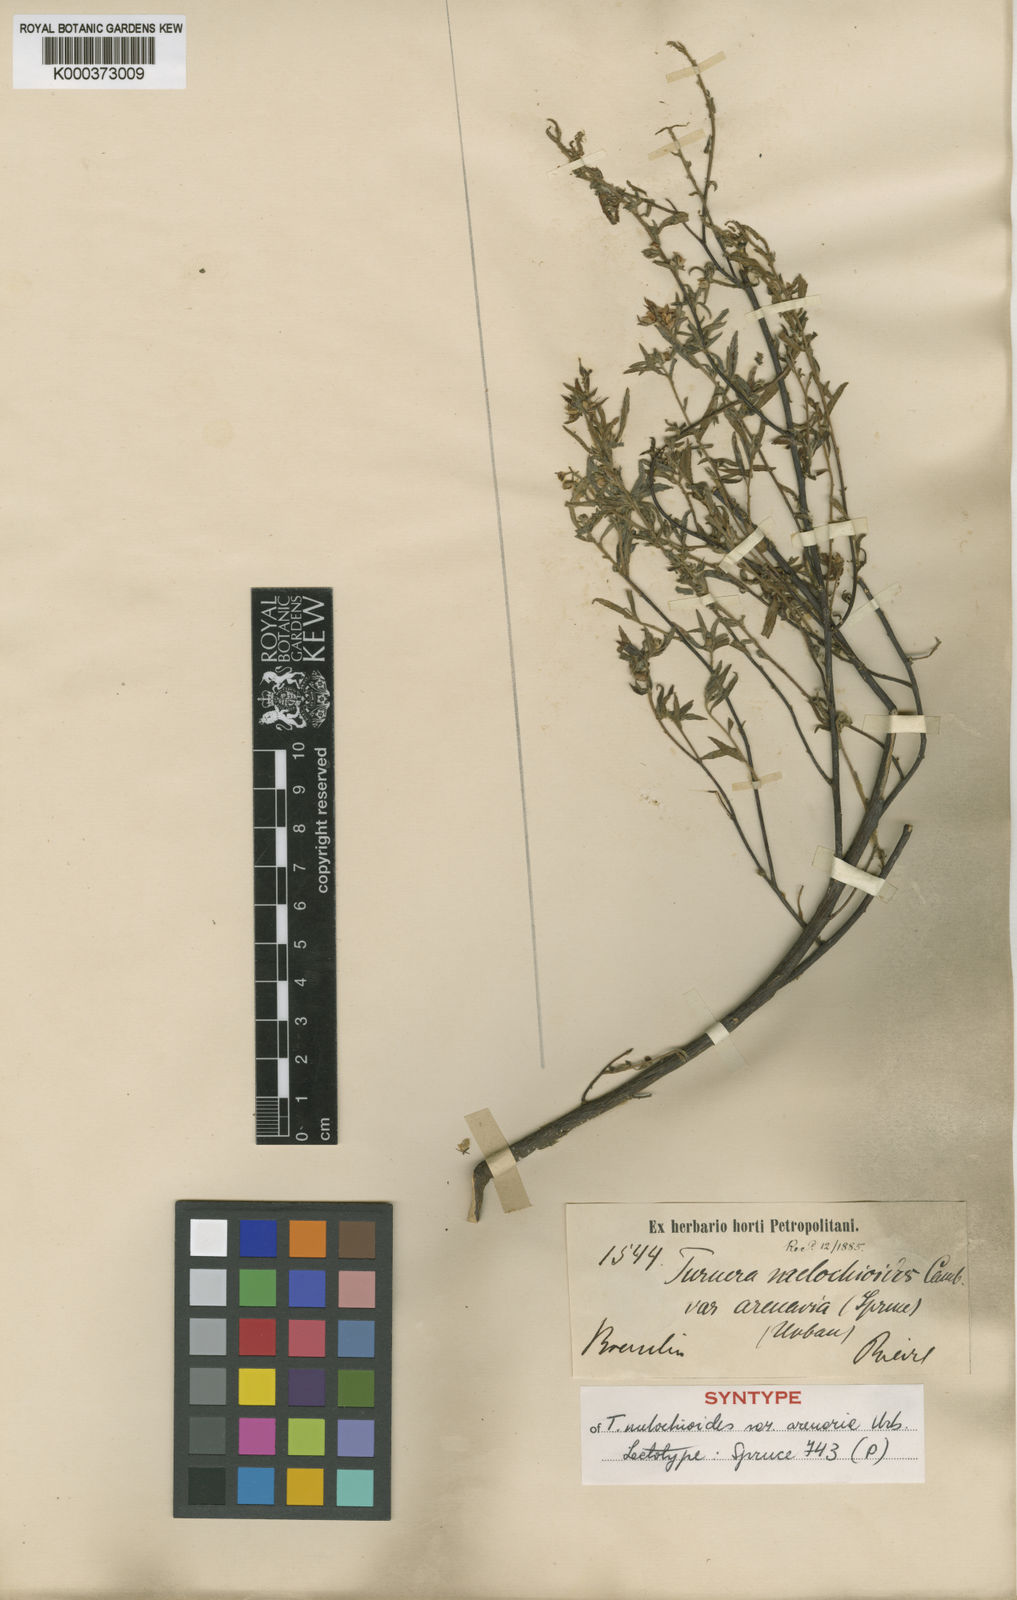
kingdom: Plantae
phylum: Tracheophyta
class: Magnoliopsida
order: Malpighiales
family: Turneraceae
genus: Turnera
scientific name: Turnera arenaria
